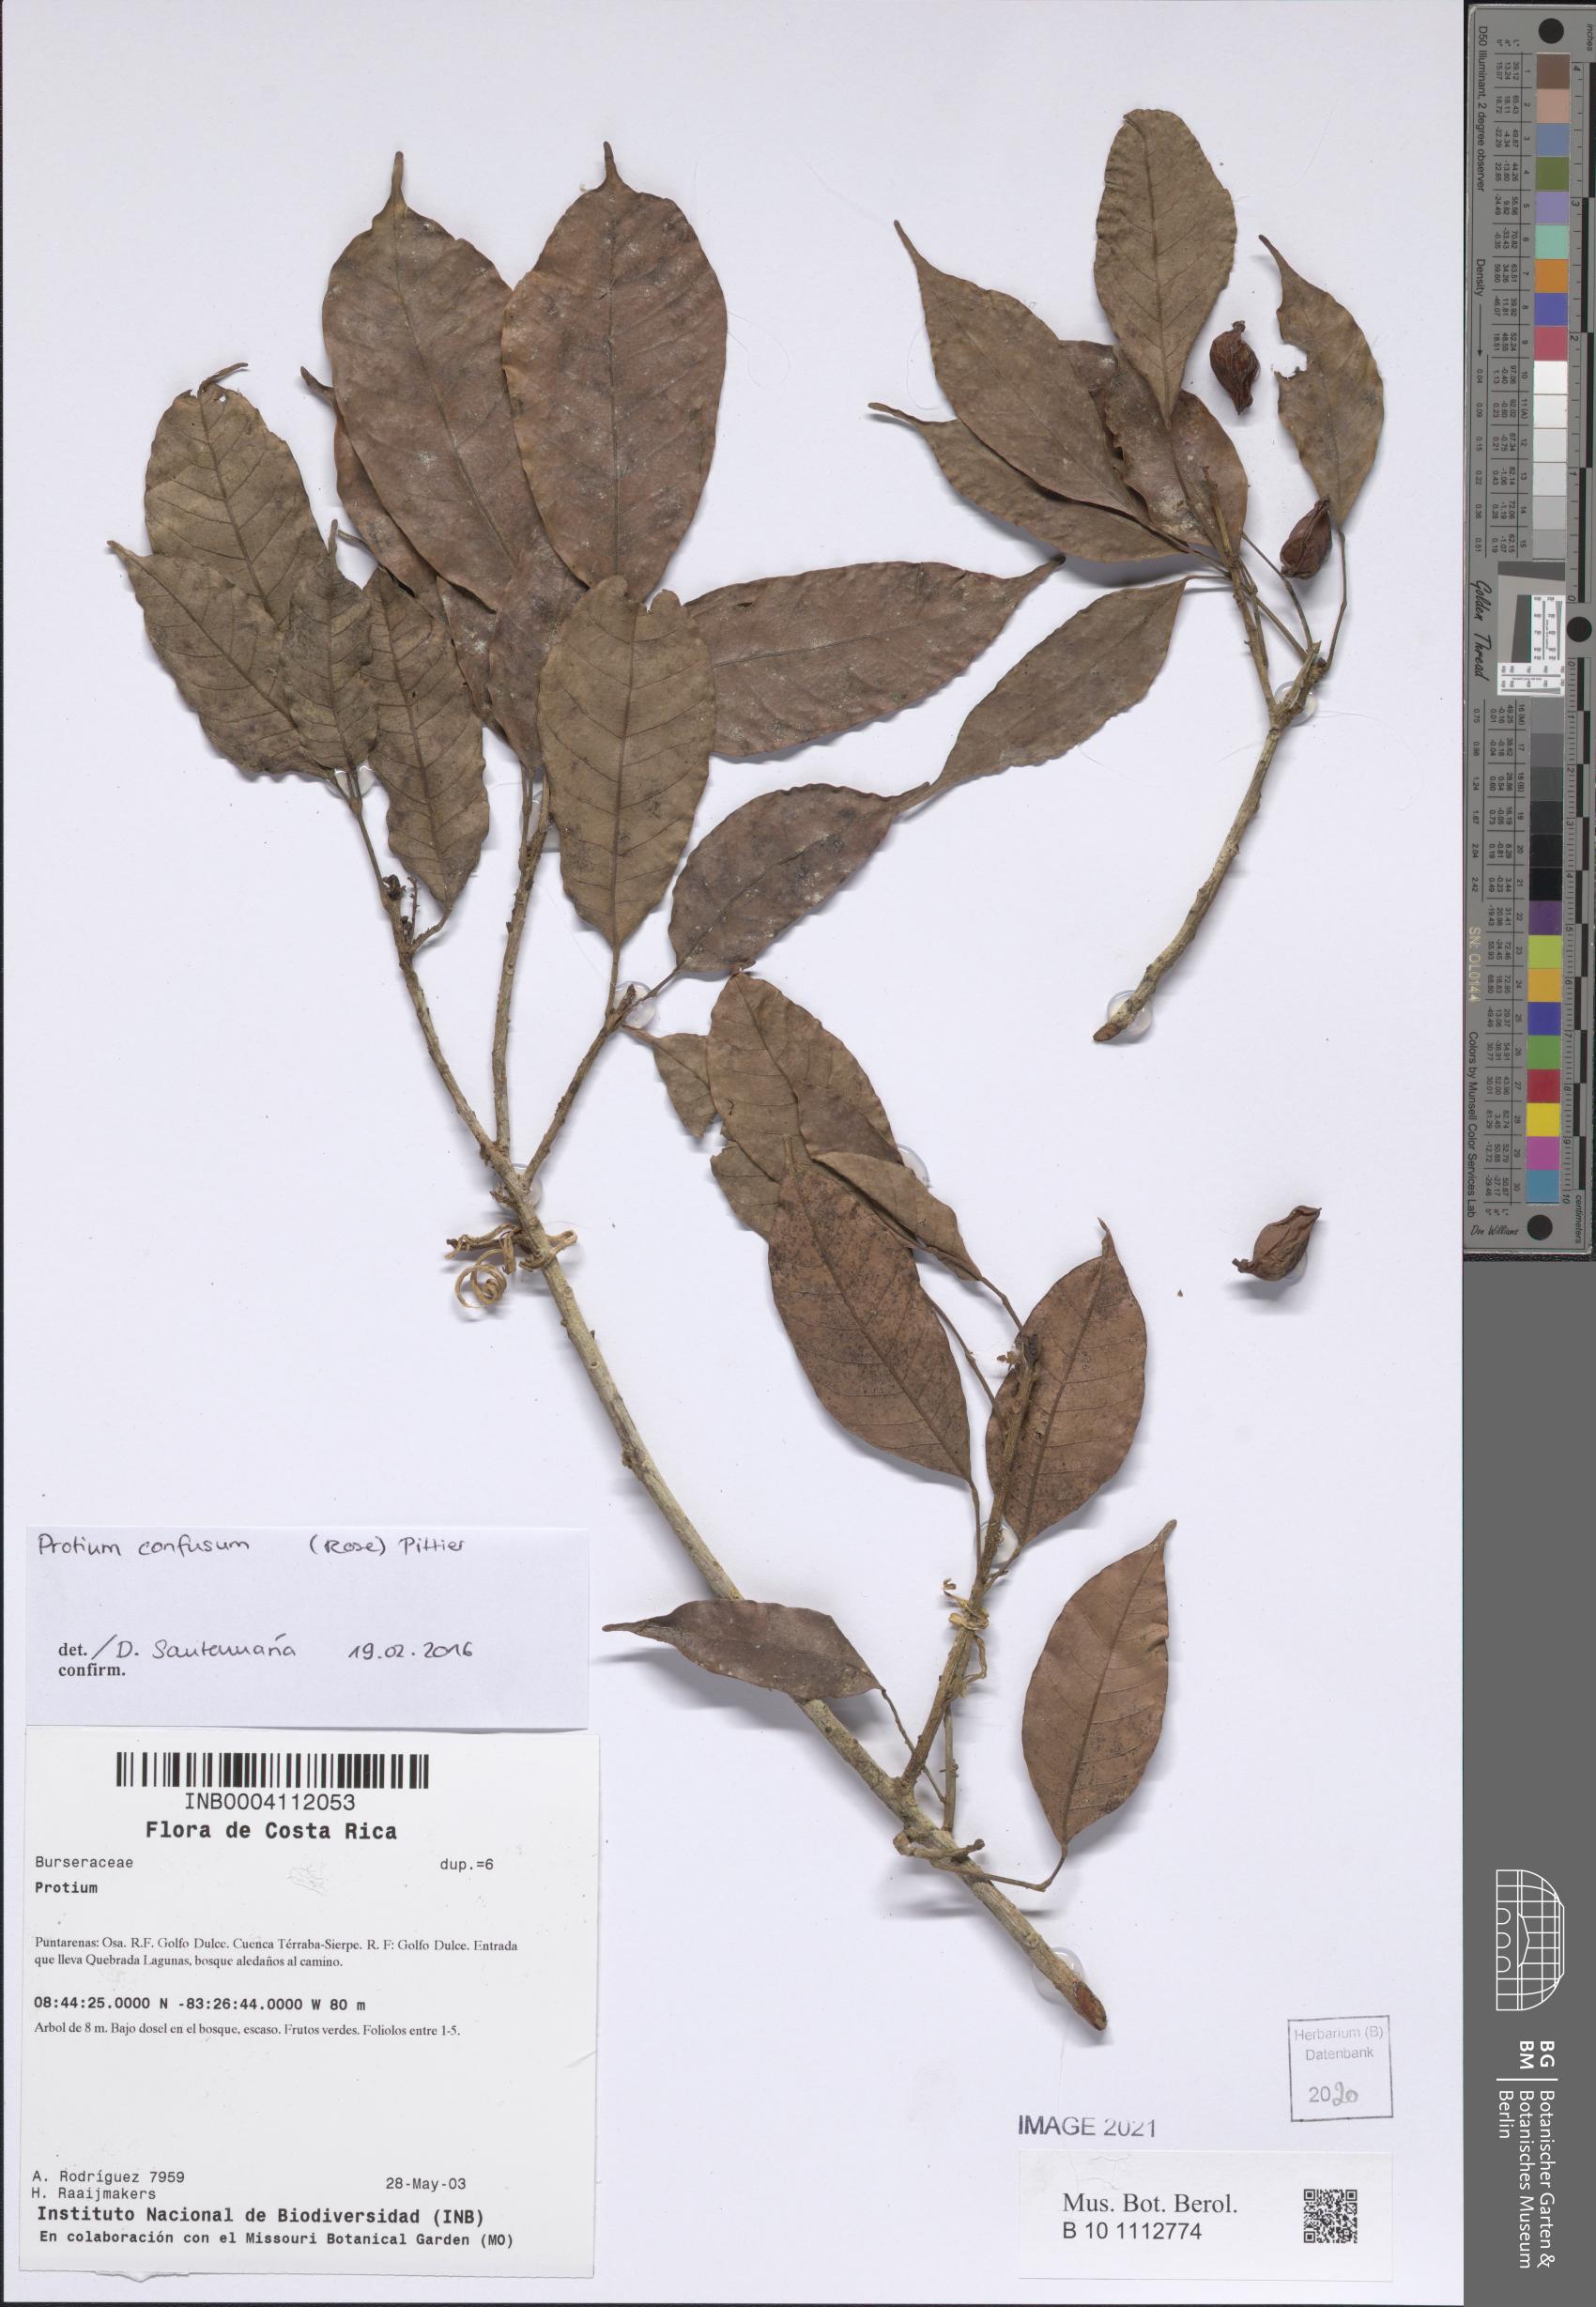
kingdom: Plantae
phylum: Tracheophyta
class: Magnoliopsida
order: Sapindales
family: Burseraceae
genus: Protium
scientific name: Protium
